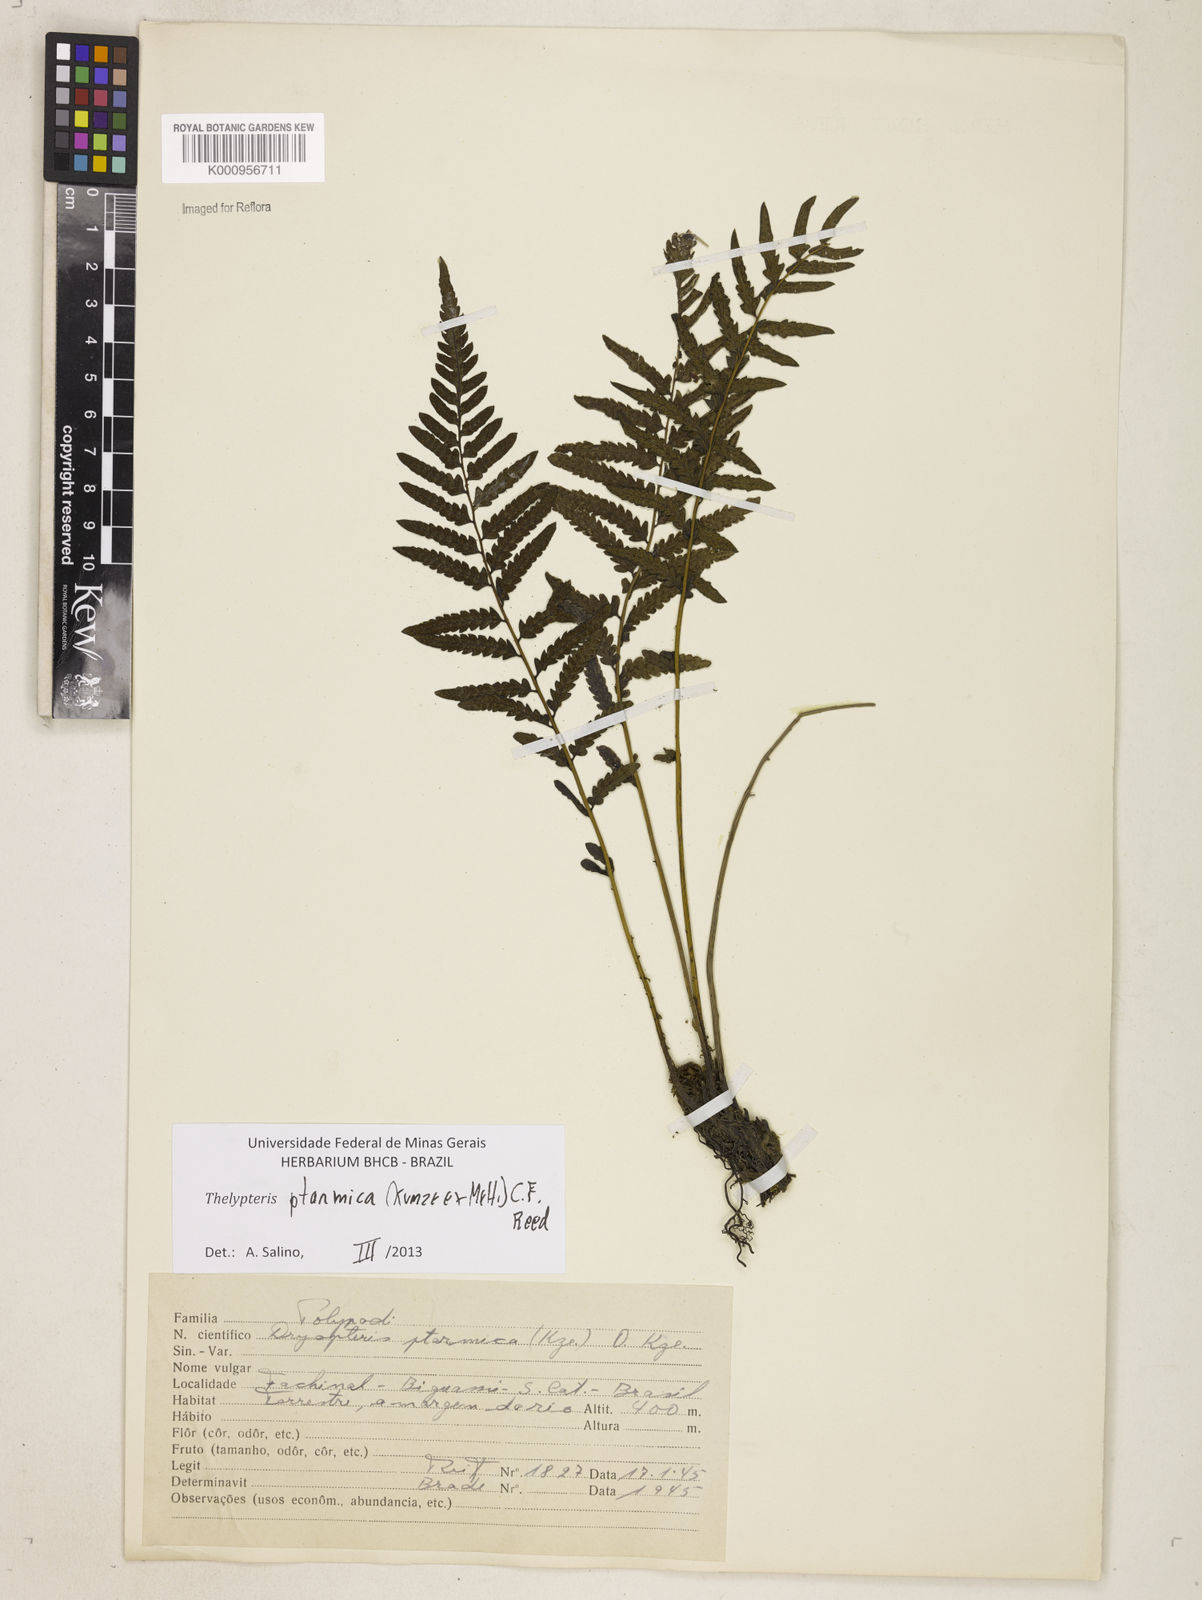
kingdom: Plantae
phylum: Tracheophyta
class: Polypodiopsida
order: Polypodiales
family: Thelypteridaceae
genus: Amauropelta
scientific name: Amauropelta ptarmica
